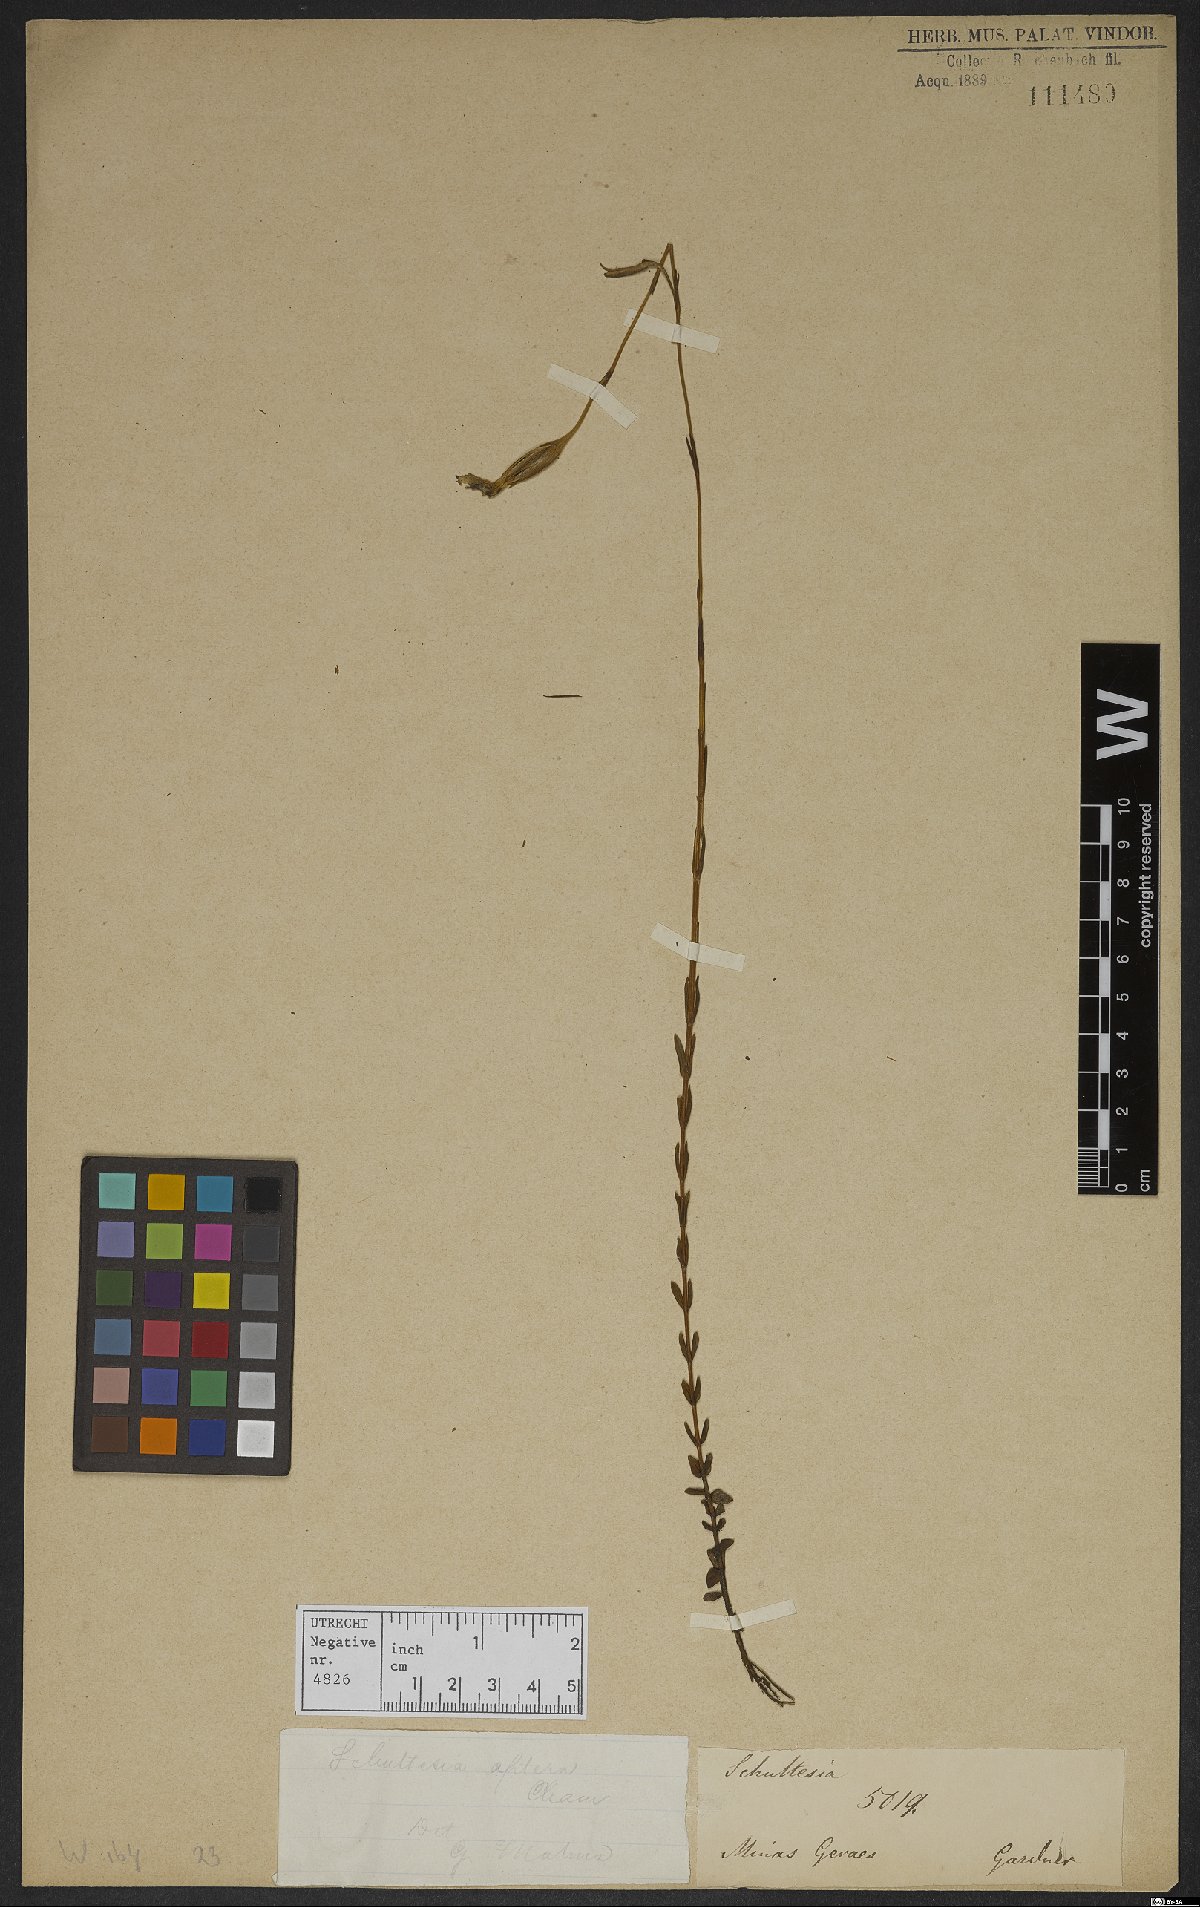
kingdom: Plantae
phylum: Tracheophyta
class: Magnoliopsida
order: Gentianales
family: Gentianaceae
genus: Schultesia
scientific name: Schultesia
